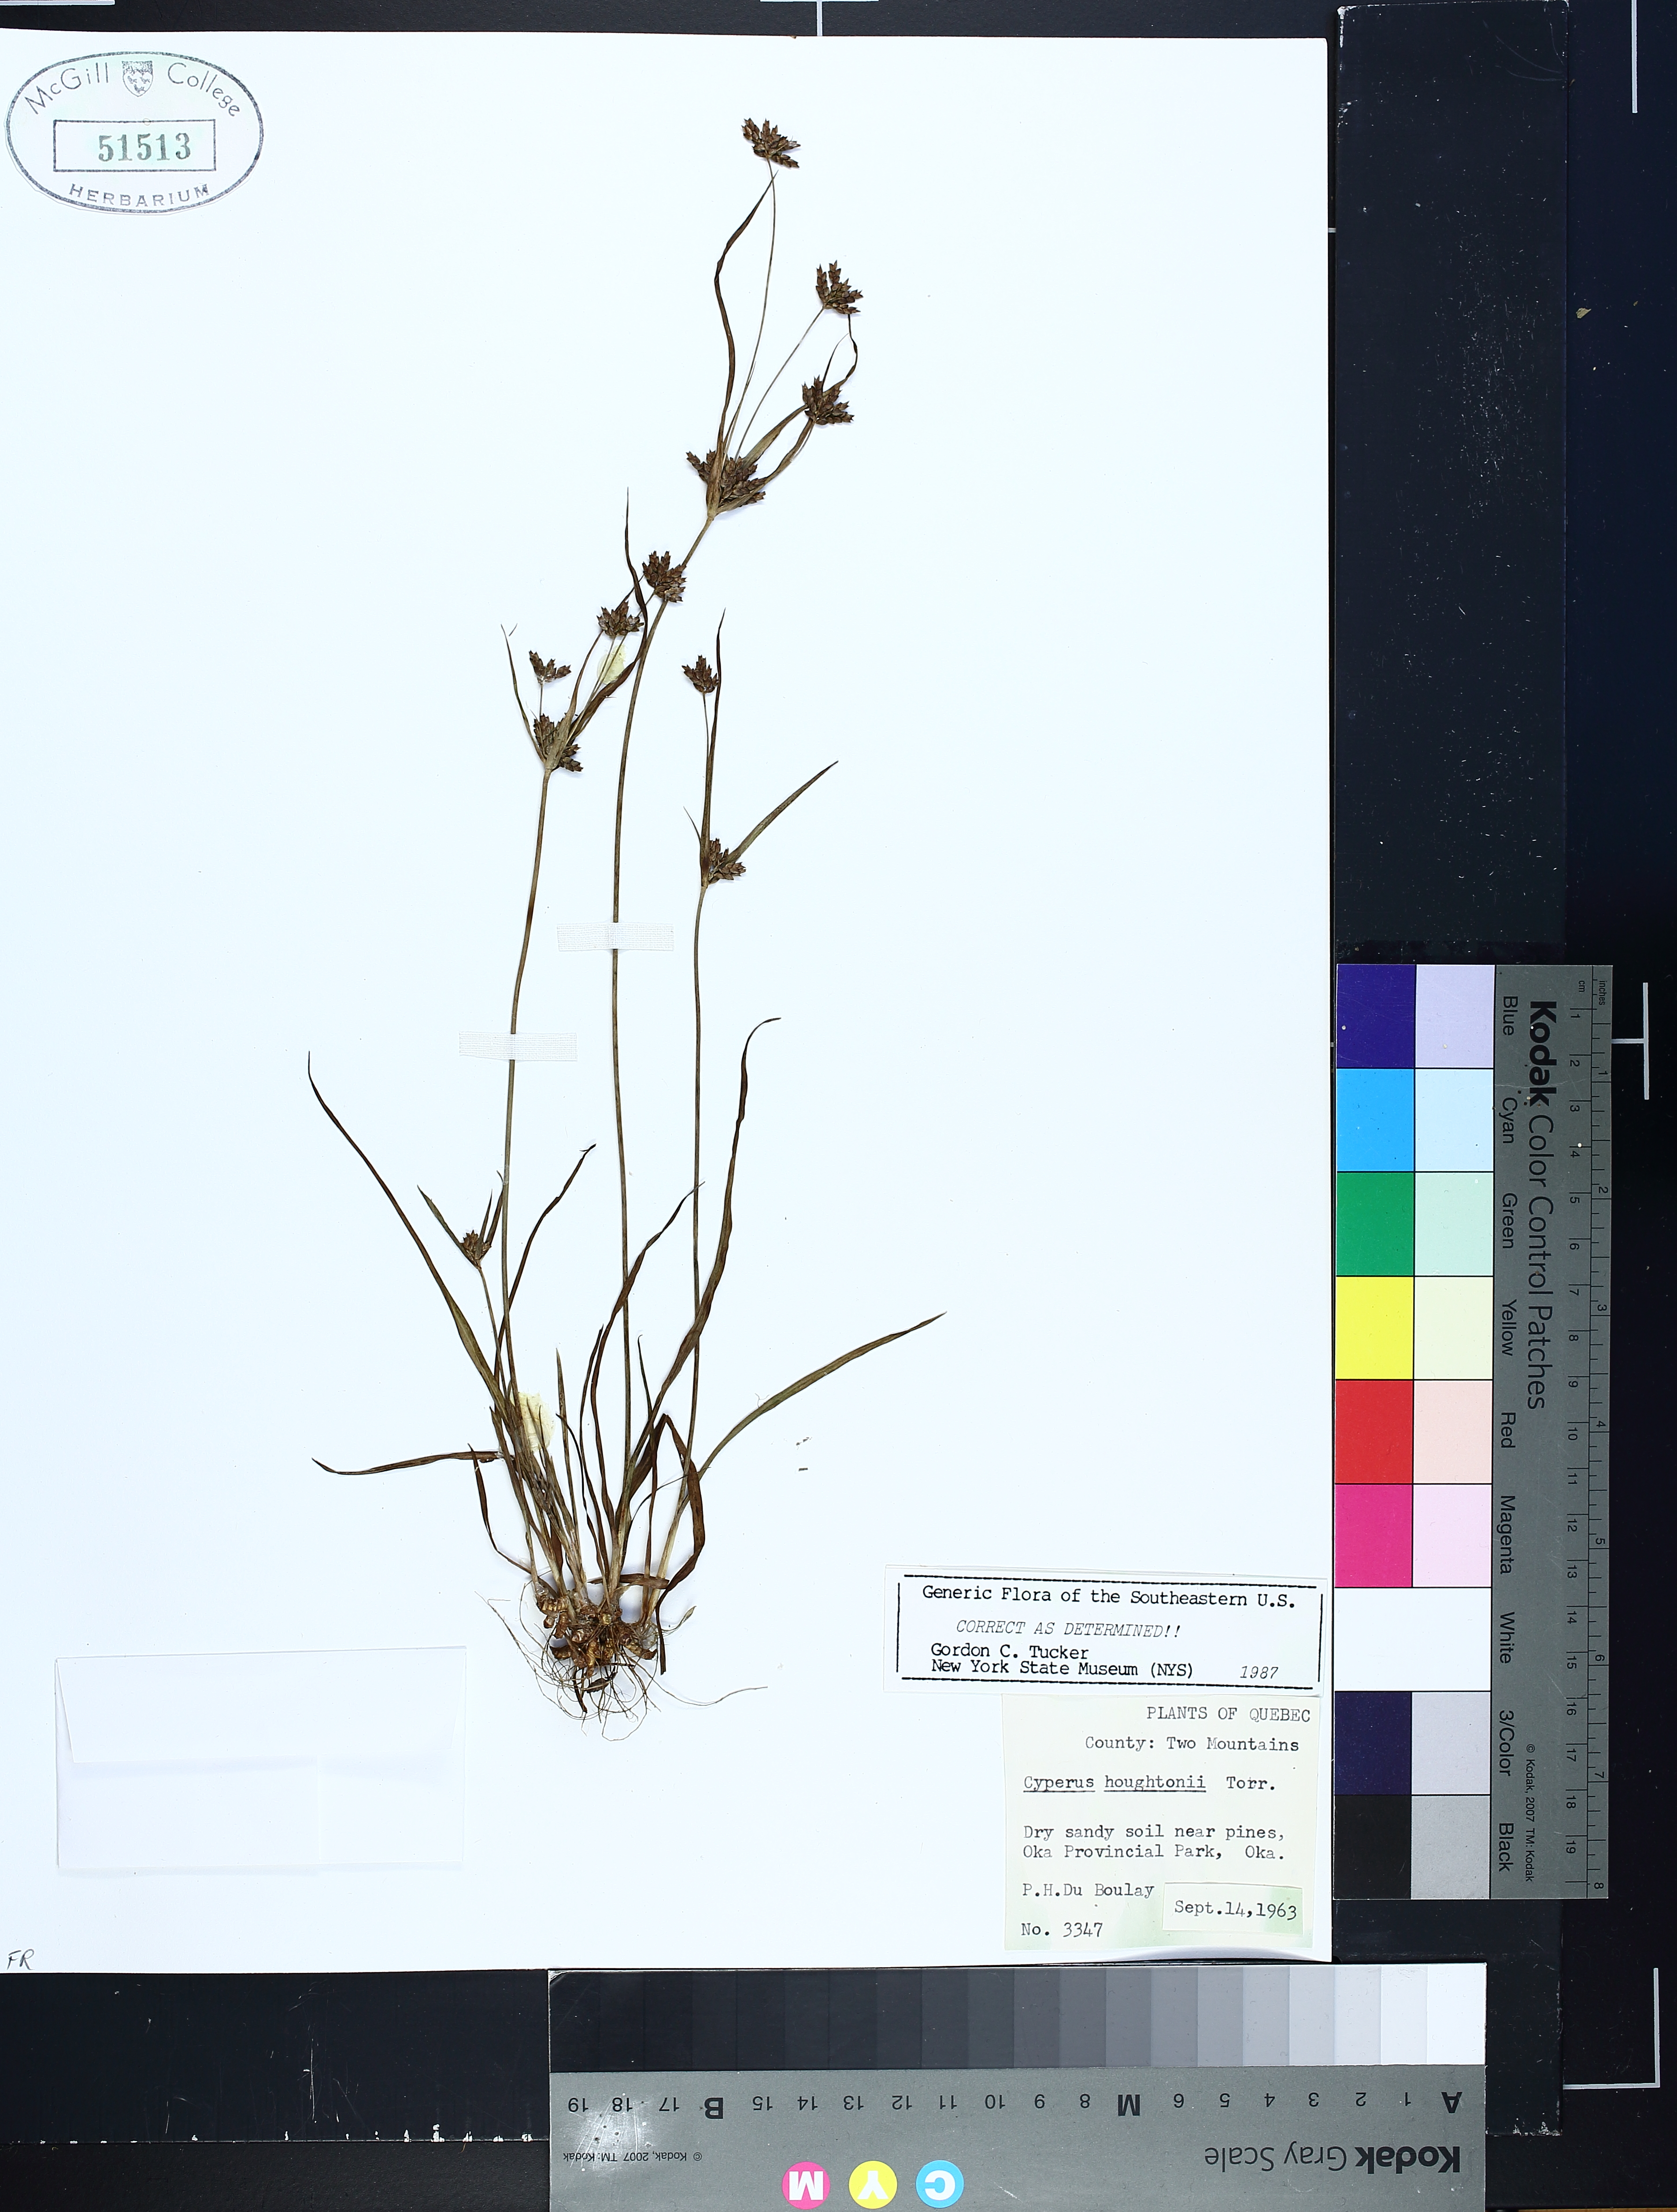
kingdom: Plantae
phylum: Tracheophyta
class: Liliopsida
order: Poales
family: Cyperaceae
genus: Cyperus
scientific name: Cyperus houghtonii
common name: Houghton's cyperus
